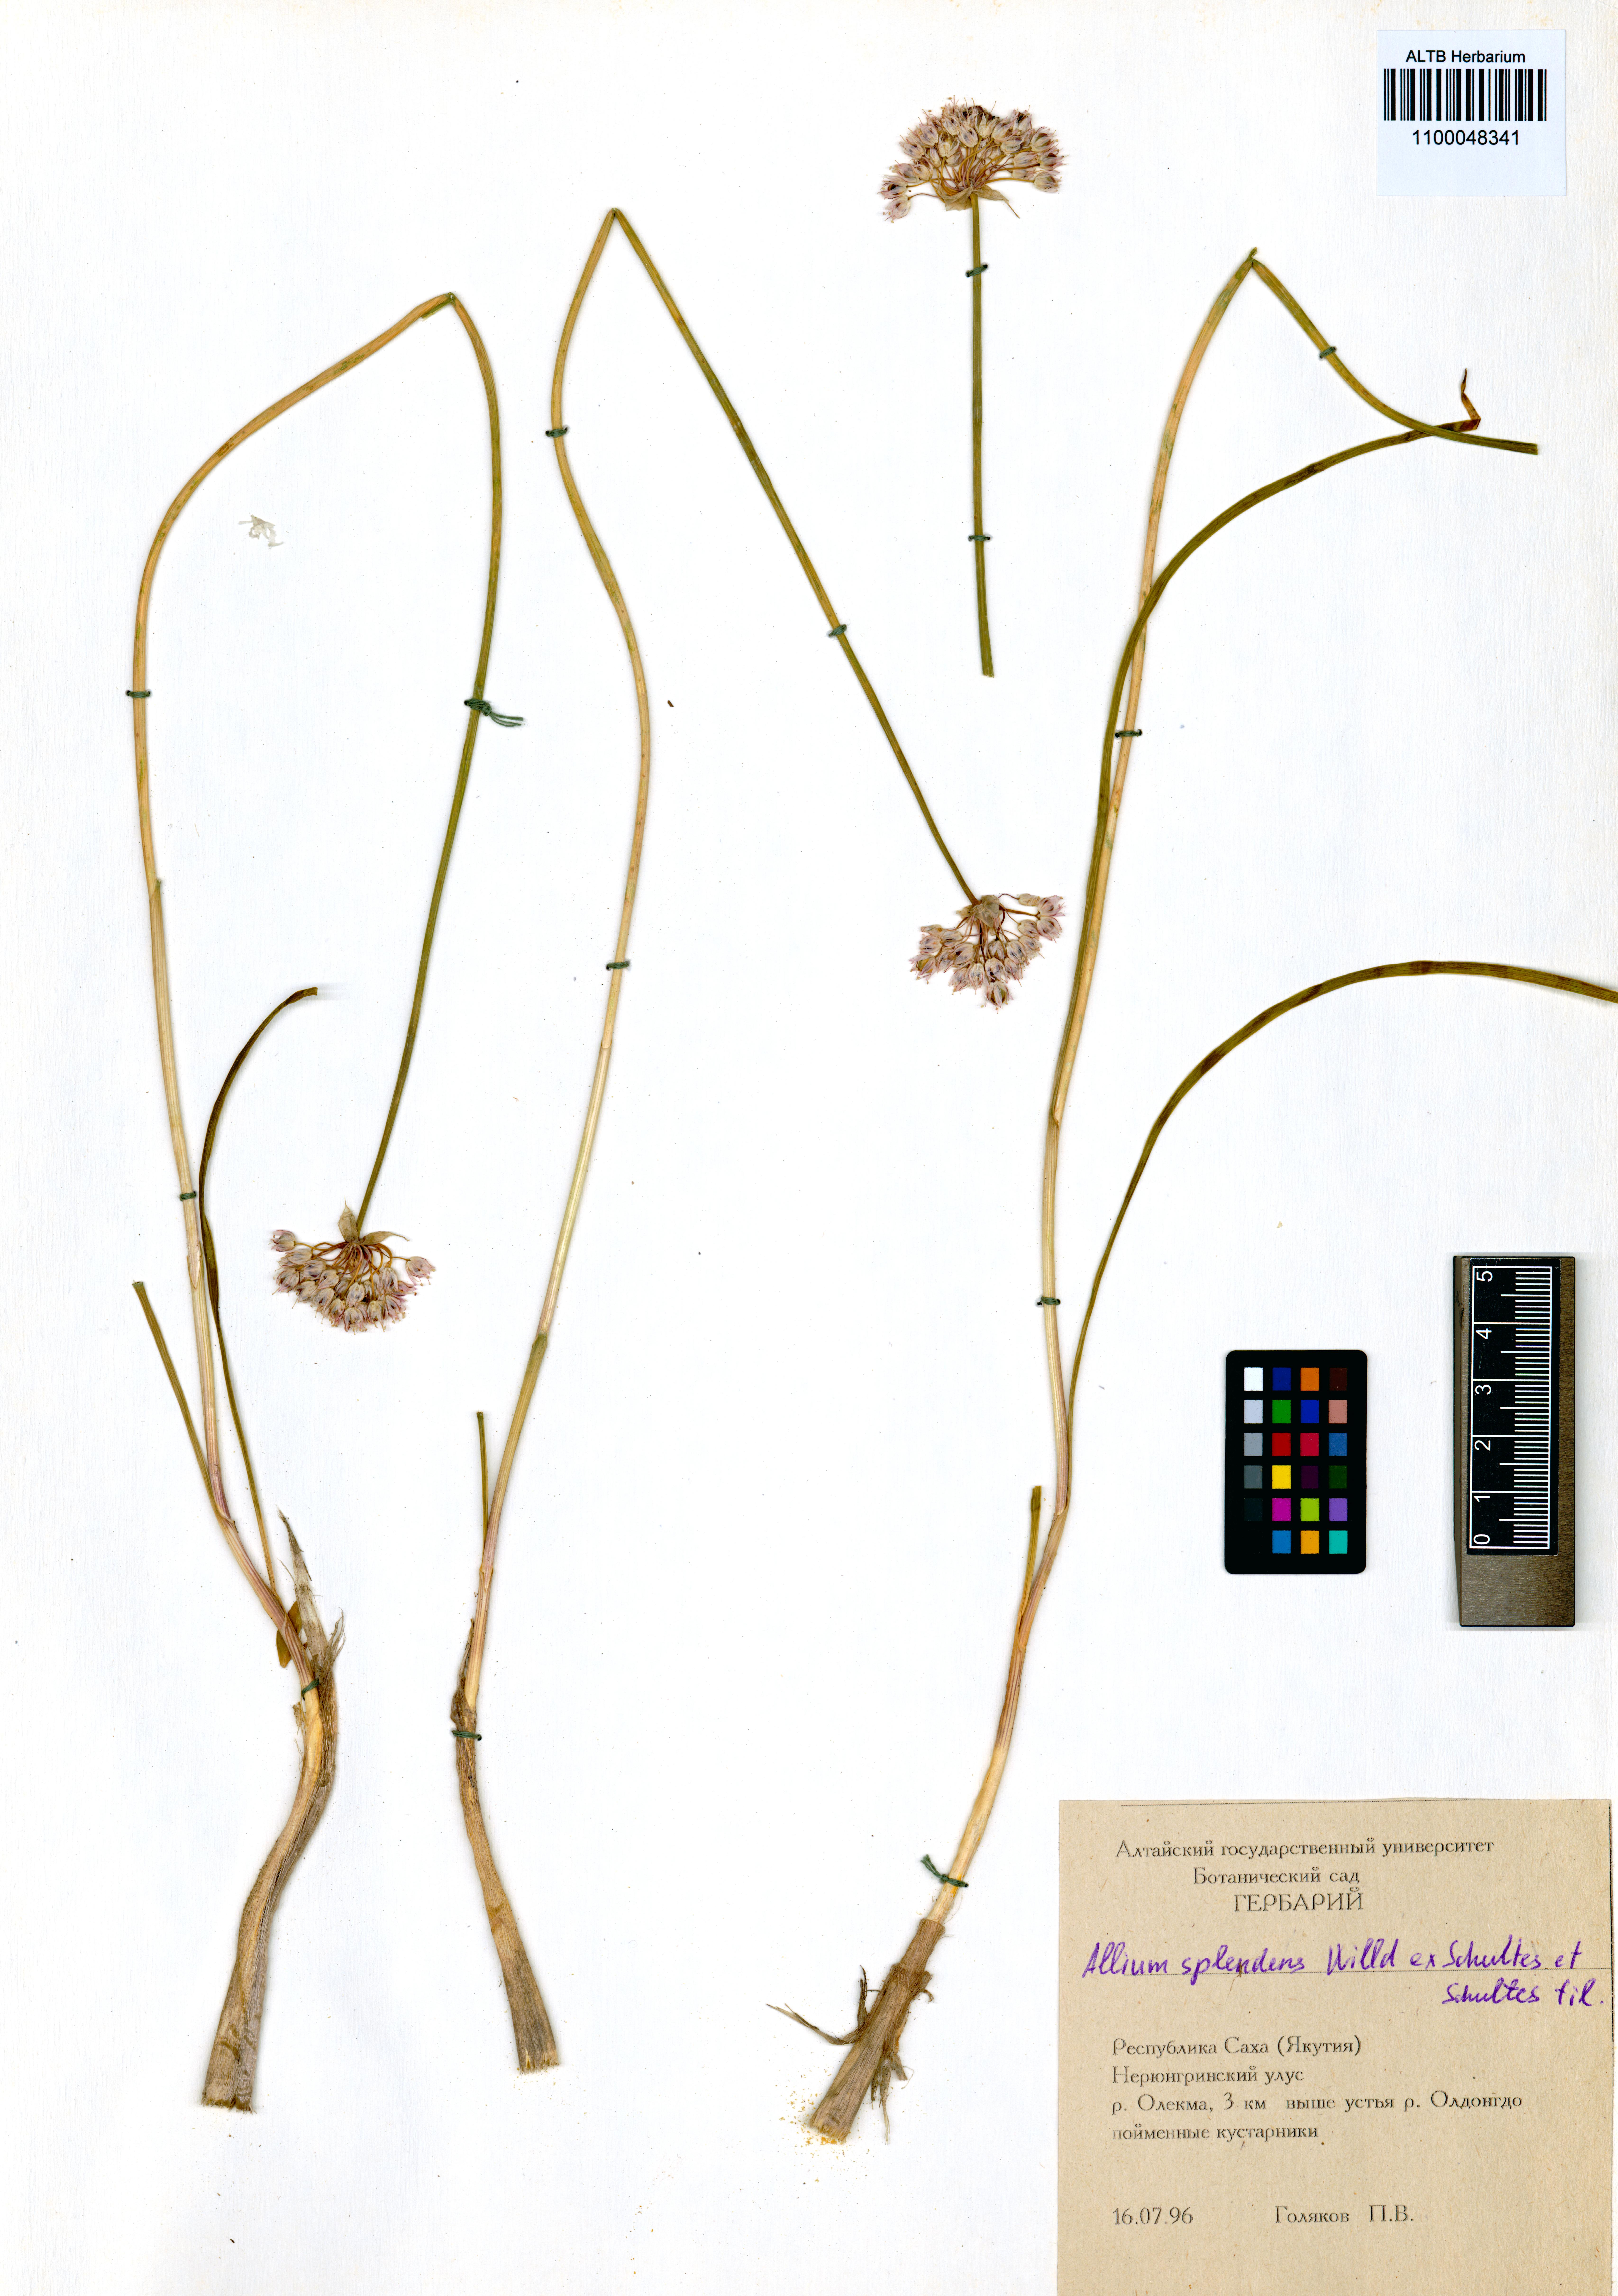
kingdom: Plantae
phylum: Tracheophyta
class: Liliopsida
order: Asparagales
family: Amaryllidaceae
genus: Allium
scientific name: Allium splendens
